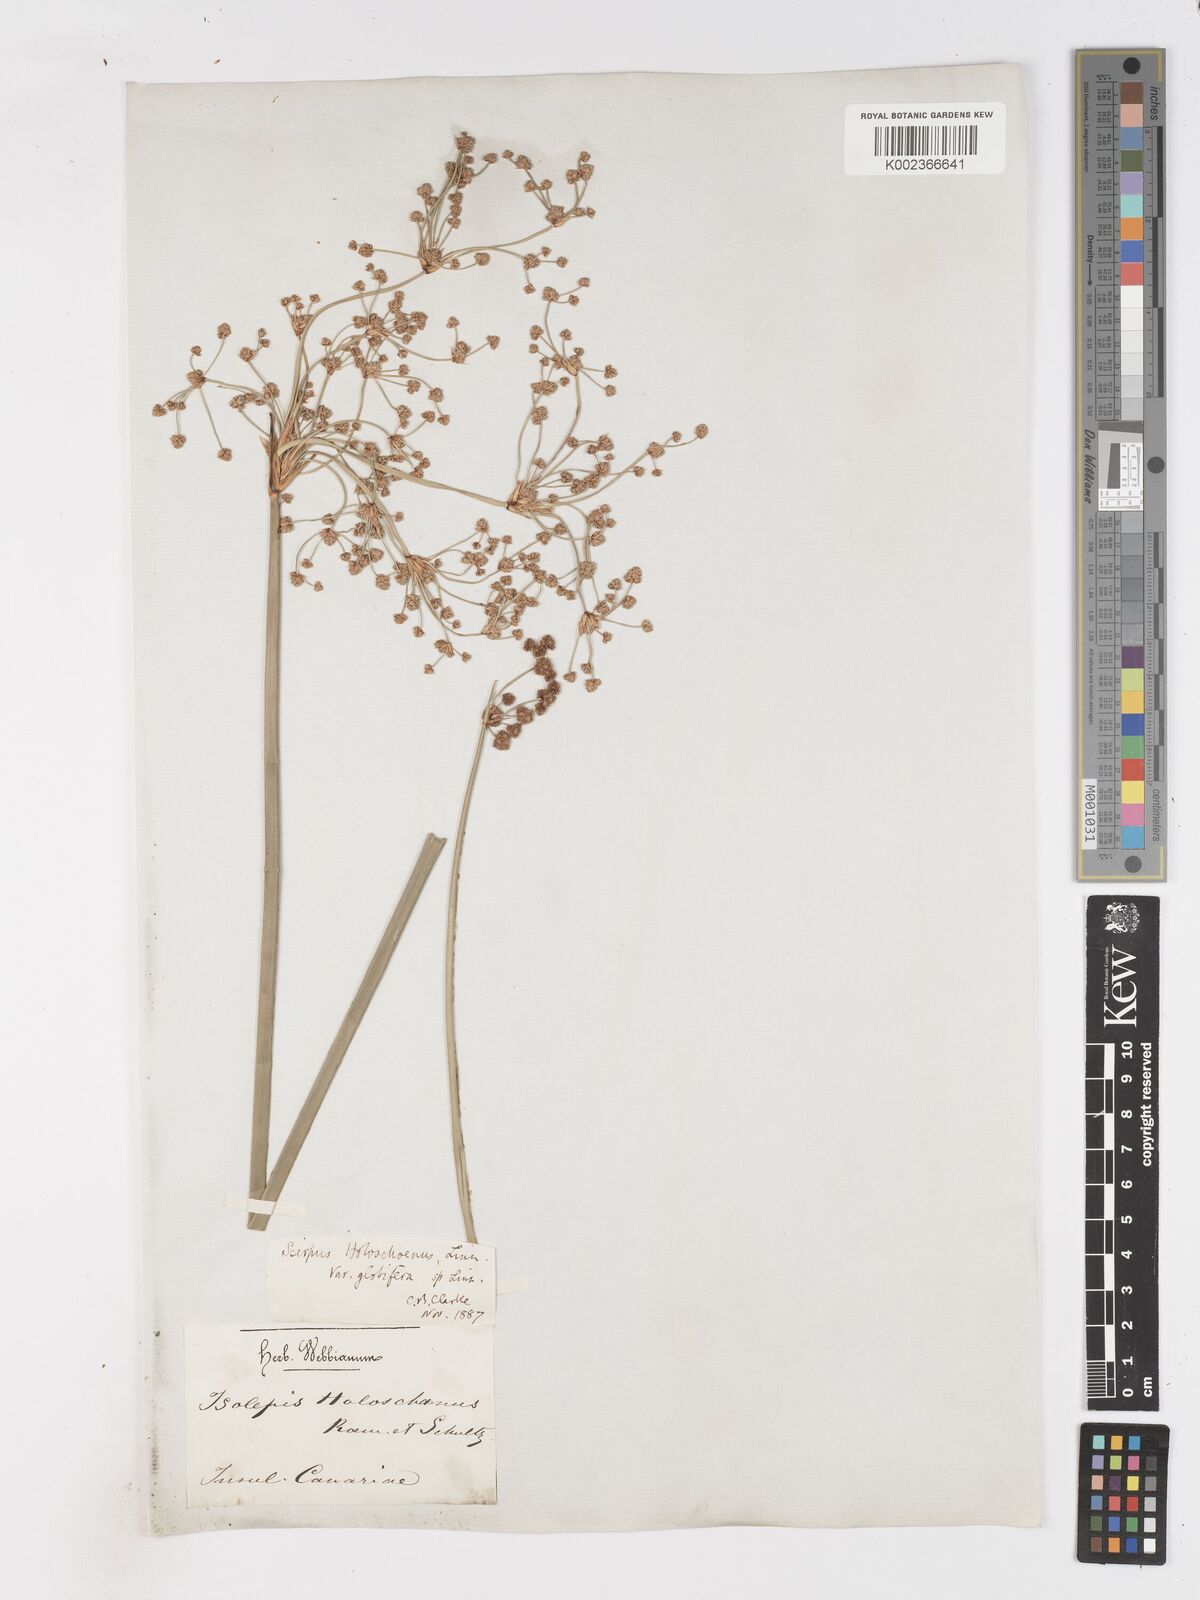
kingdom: Plantae
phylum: Tracheophyta
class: Liliopsida
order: Poales
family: Cyperaceae
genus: Scirpoides
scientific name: Scirpoides holoschoenus
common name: Round-headed club-rush
